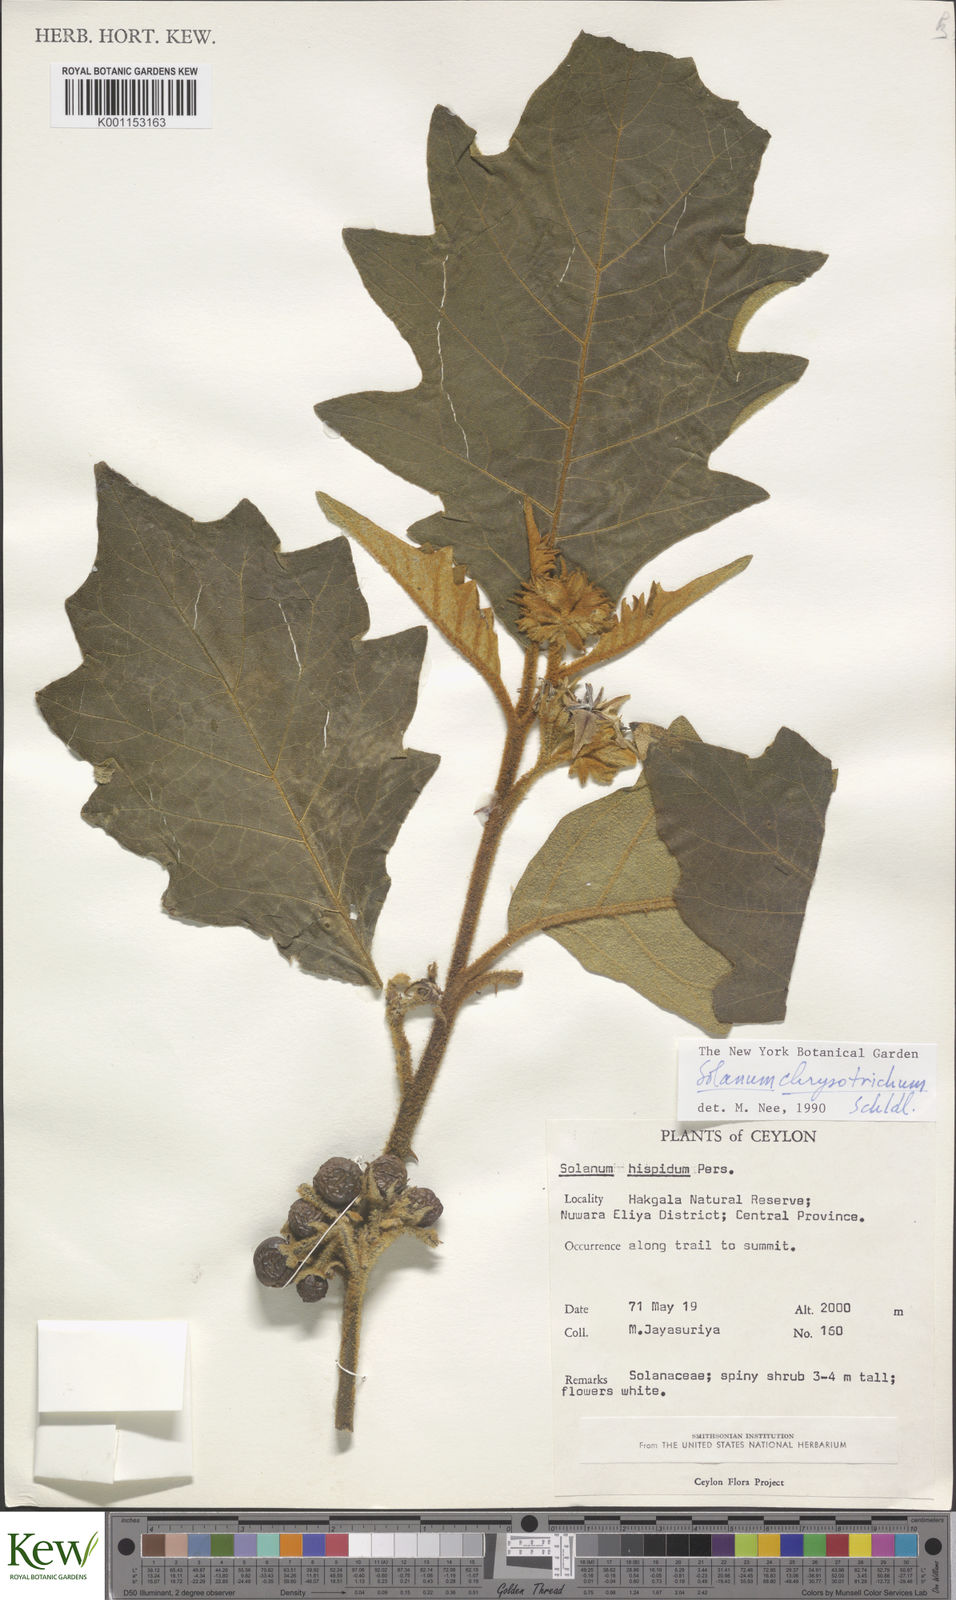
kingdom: Plantae
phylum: Tracheophyta
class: Magnoliopsida
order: Solanales
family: Solanaceae
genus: Solanum
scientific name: Solanum asperolanatum
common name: Devil's-fig
